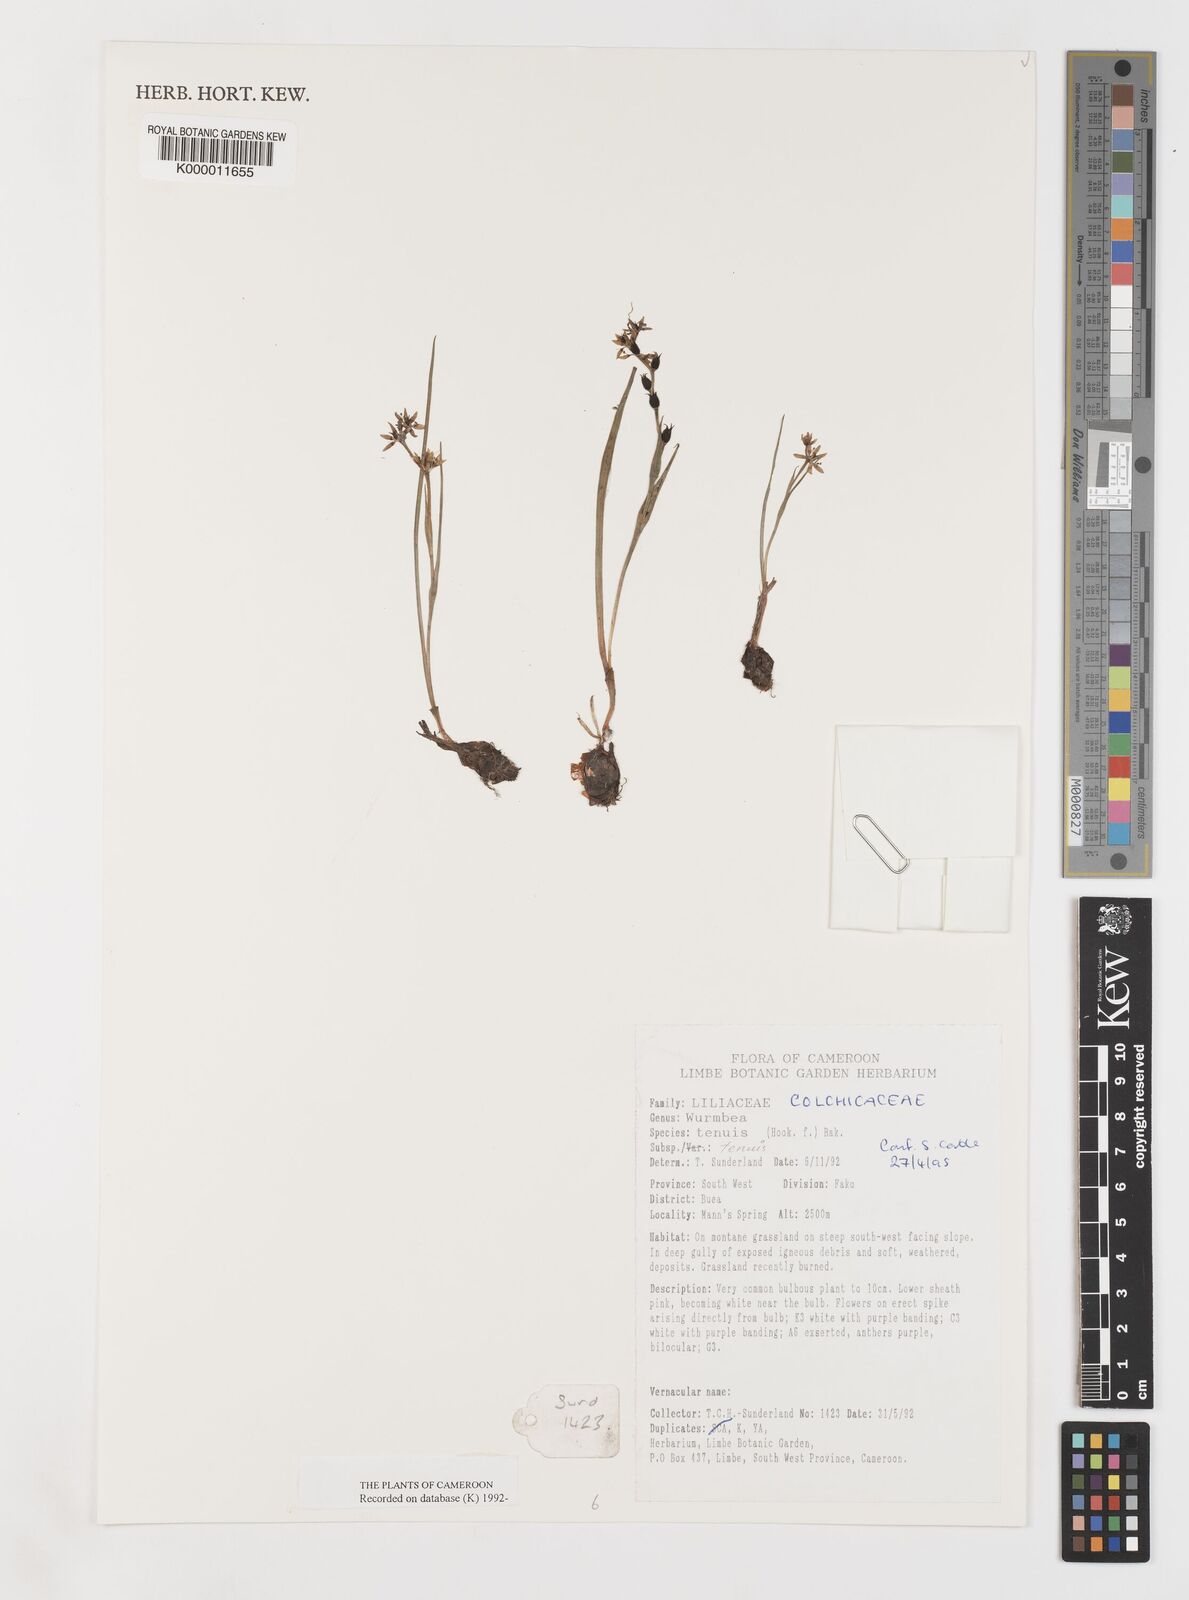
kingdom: Plantae
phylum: Tracheophyta
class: Liliopsida
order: Liliales
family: Colchicaceae
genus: Wurmbea
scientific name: Wurmbea tenuis
